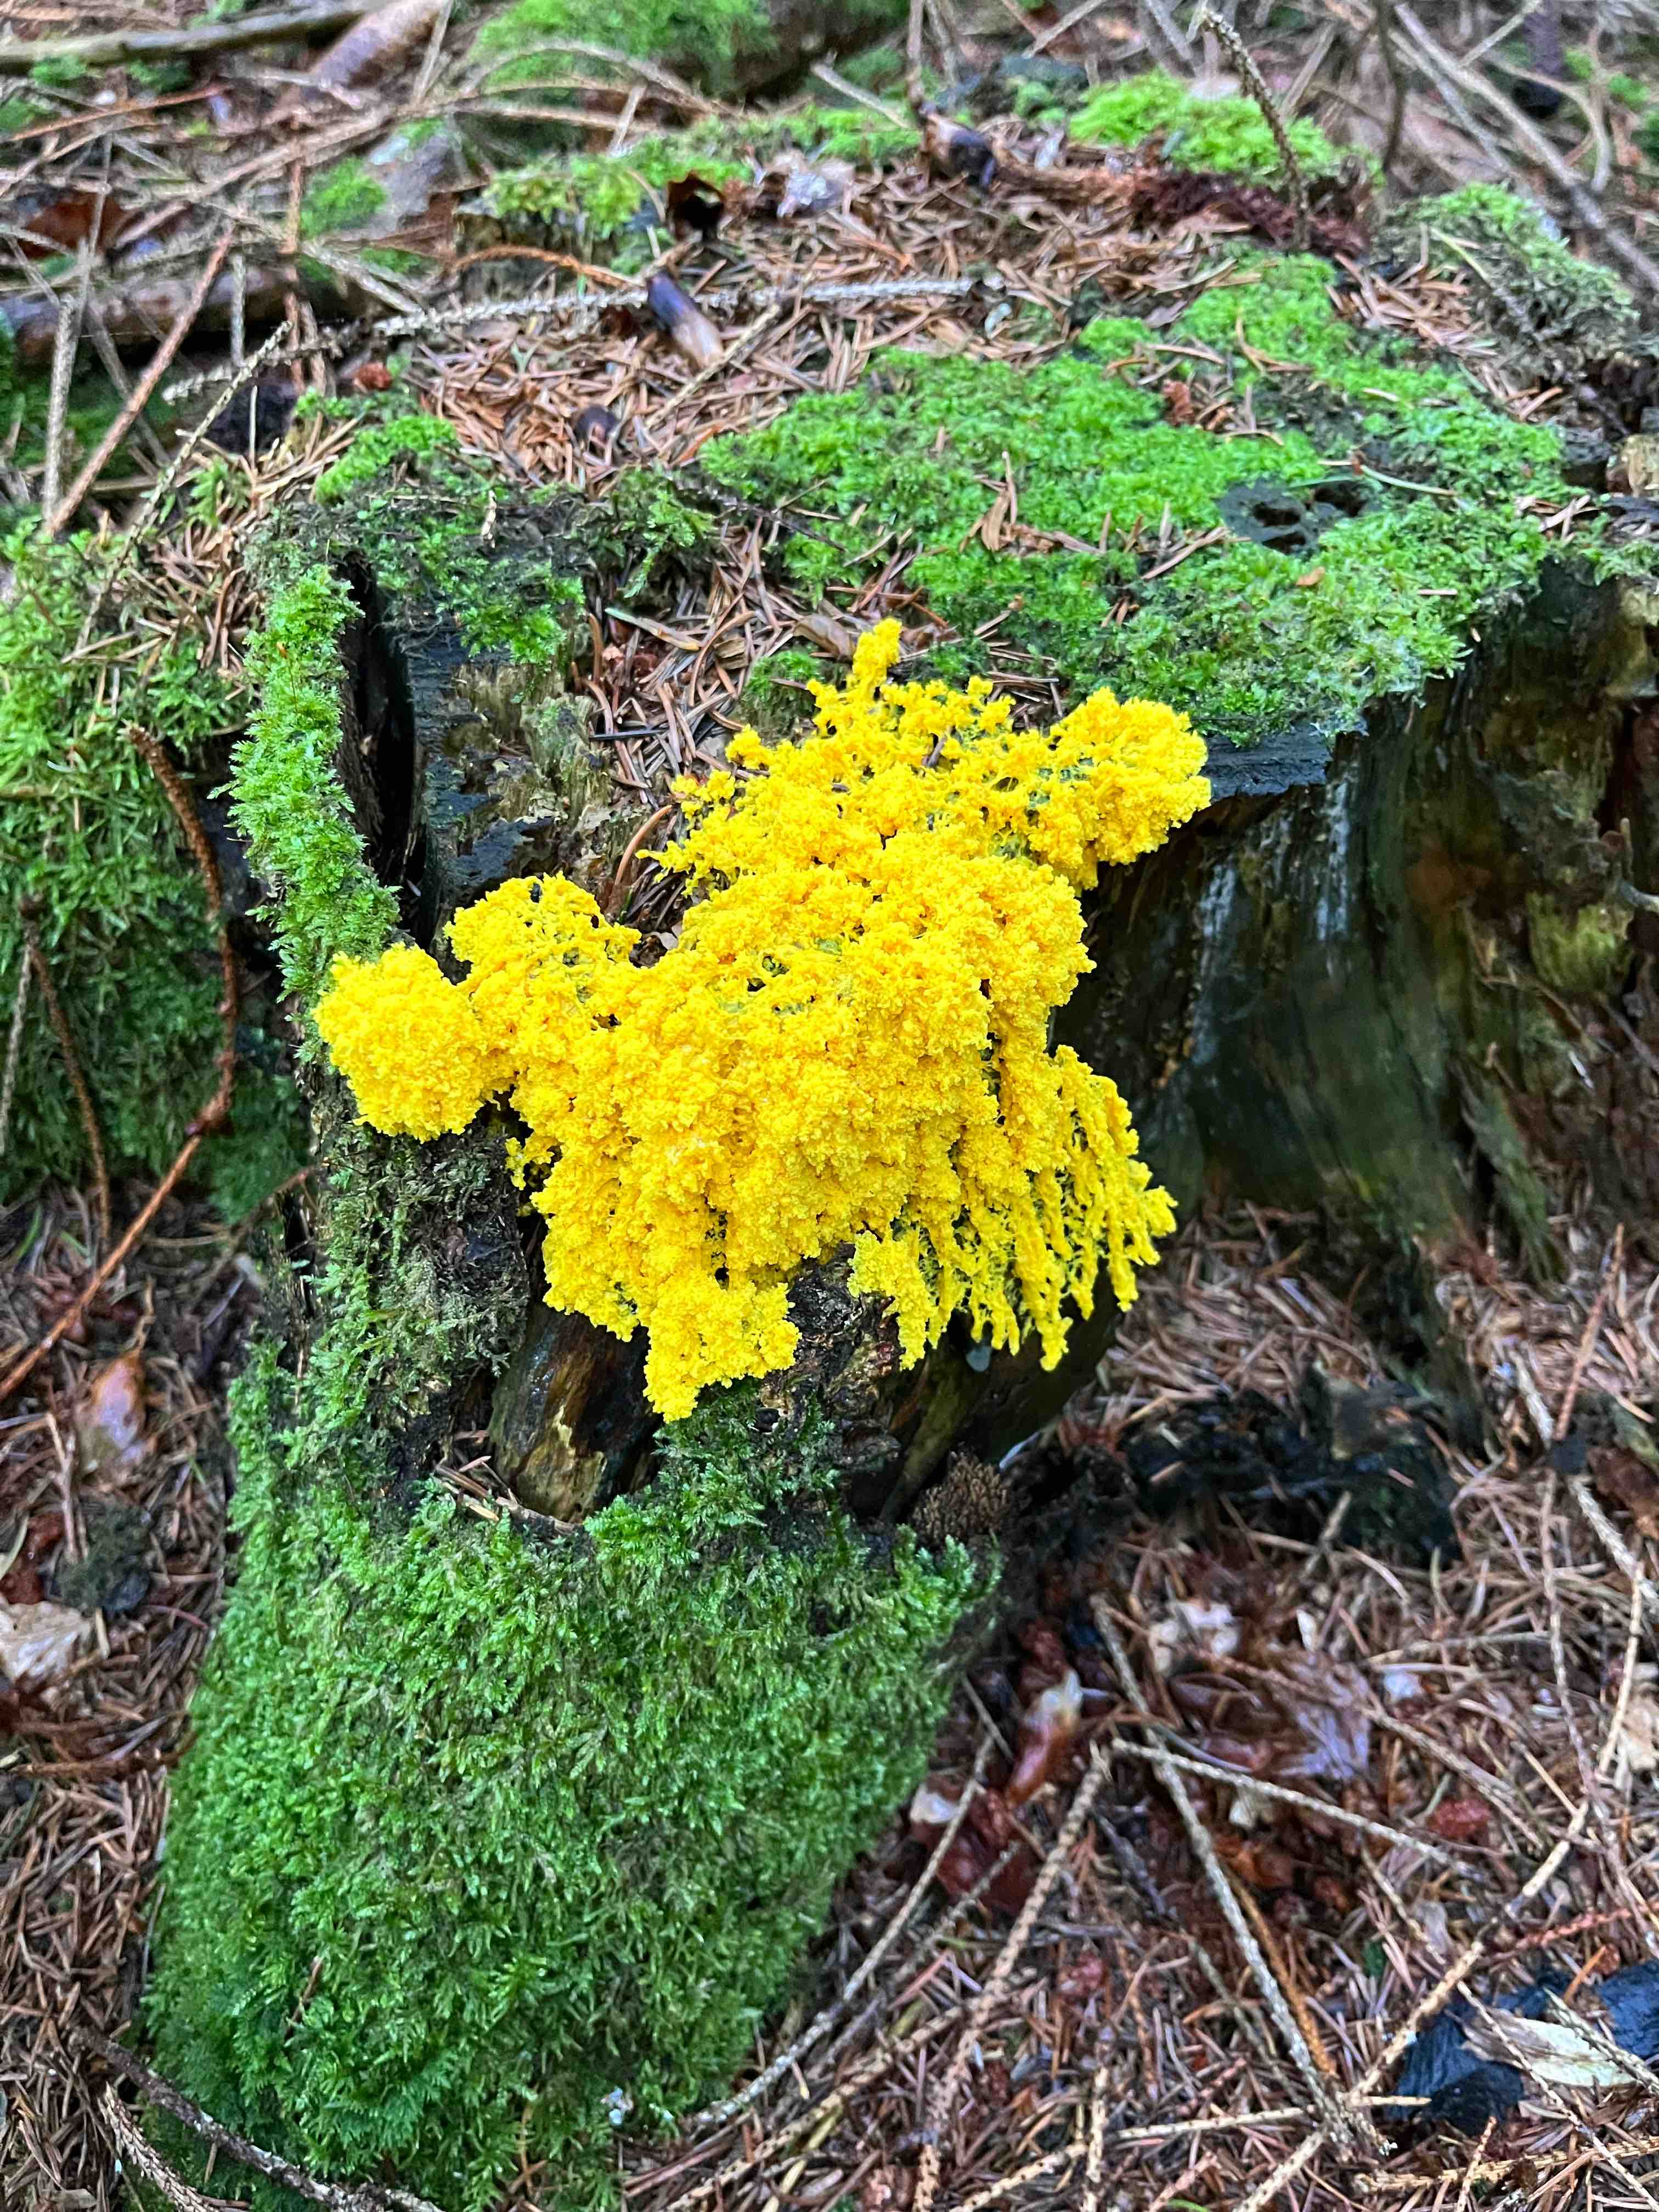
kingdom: Protozoa
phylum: Mycetozoa
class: Myxomycetes
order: Physarales
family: Physaraceae
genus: Fuligo
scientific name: Fuligo septica
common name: gul troldsmør
